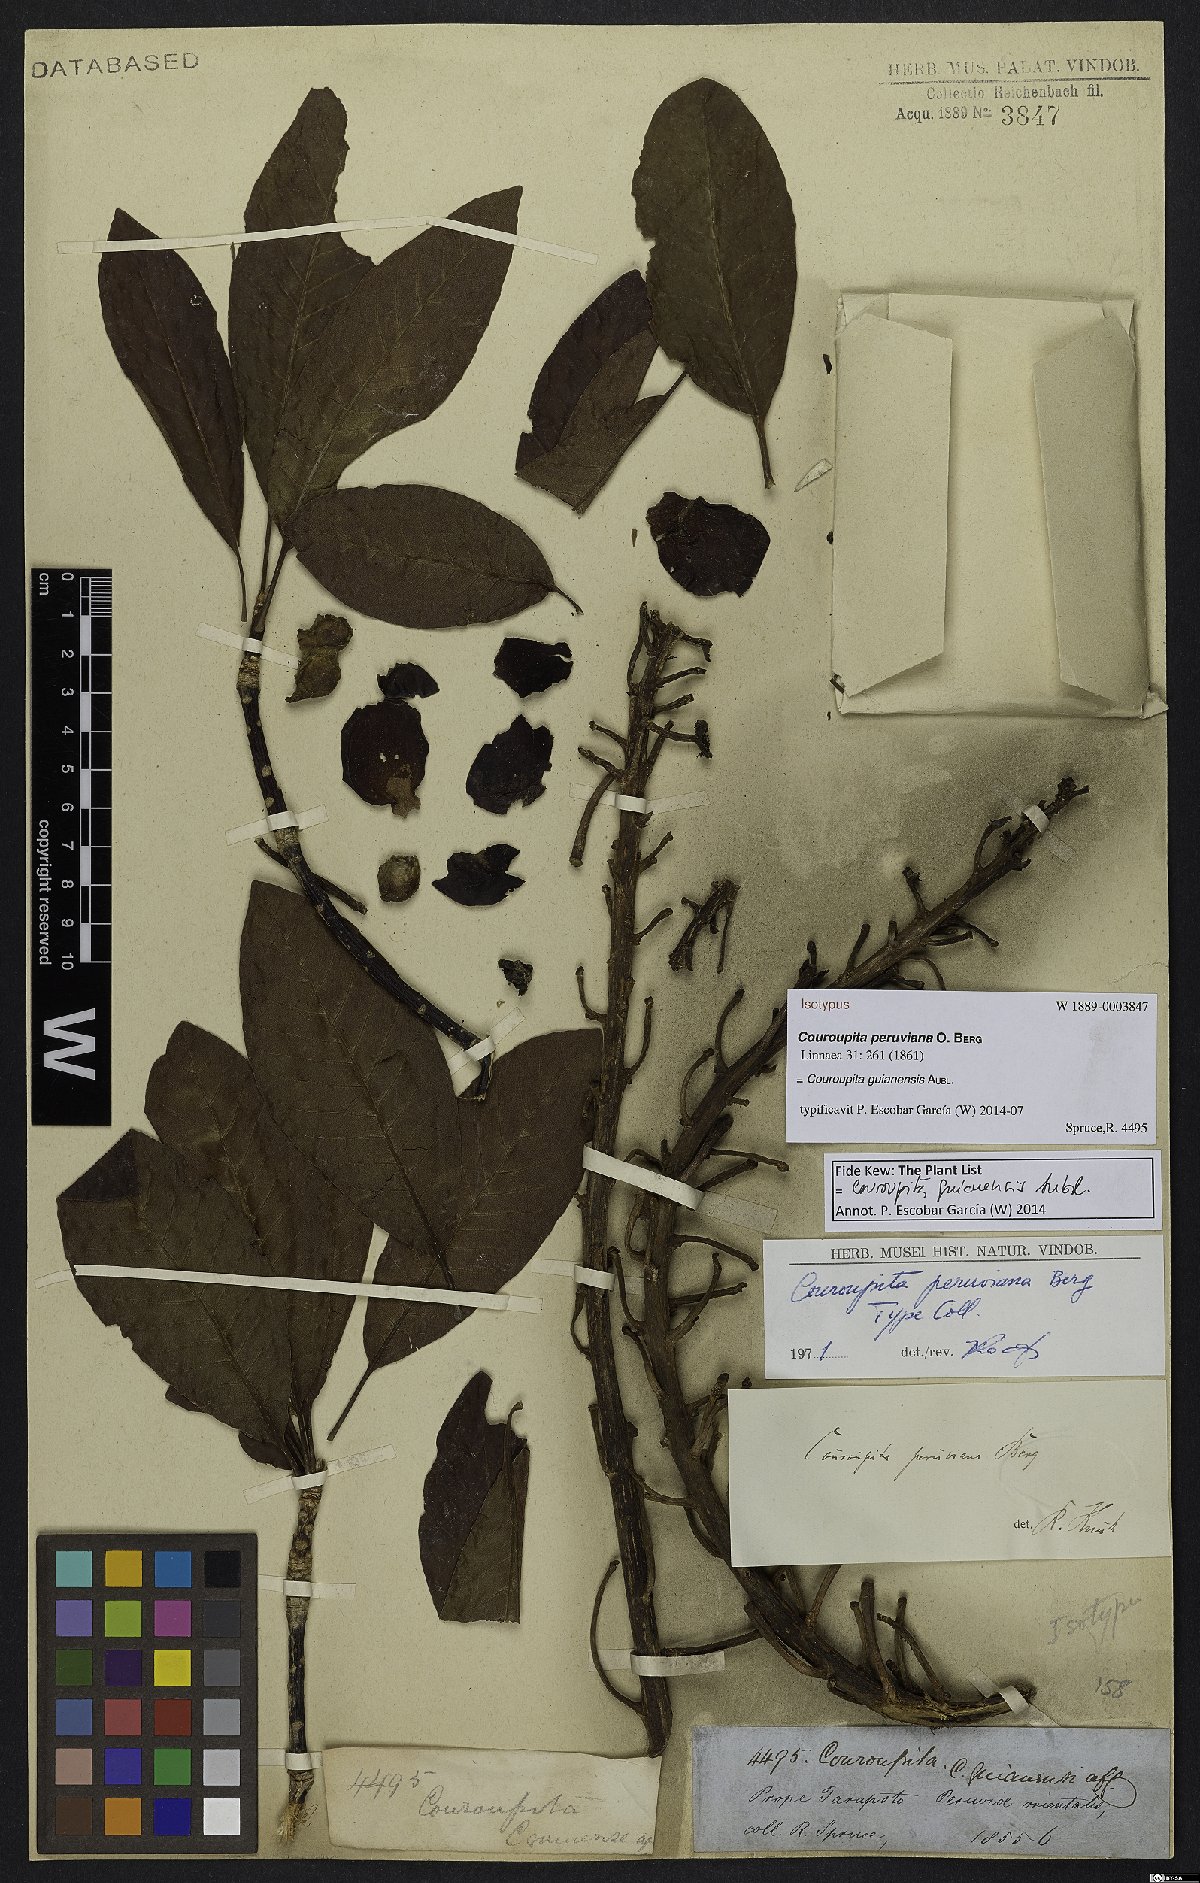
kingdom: Plantae
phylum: Tracheophyta
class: Magnoliopsida
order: Ericales
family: Lecythidaceae
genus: Couroupita
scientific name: Couroupita guianensis
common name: Cannonball tree
